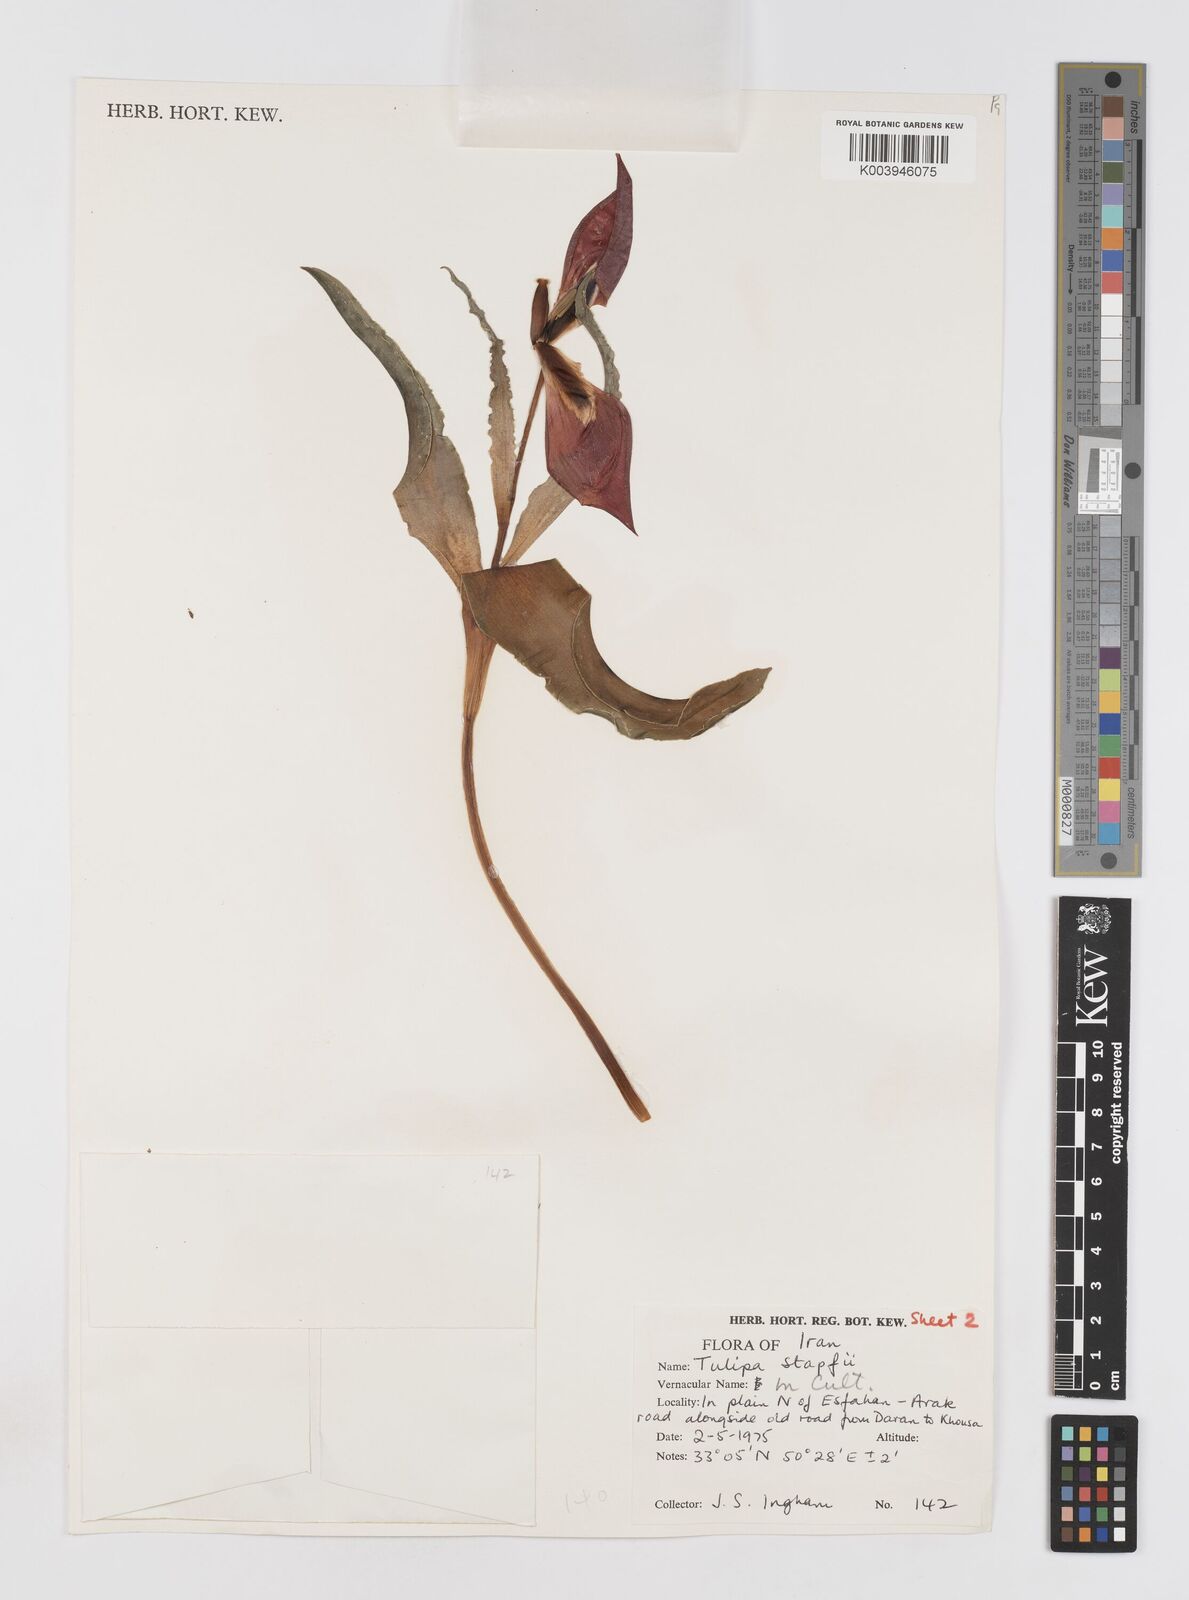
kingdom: Plantae
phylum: Tracheophyta
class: Liliopsida
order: Liliales
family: Liliaceae
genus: Tulipa
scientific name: Tulipa systola
